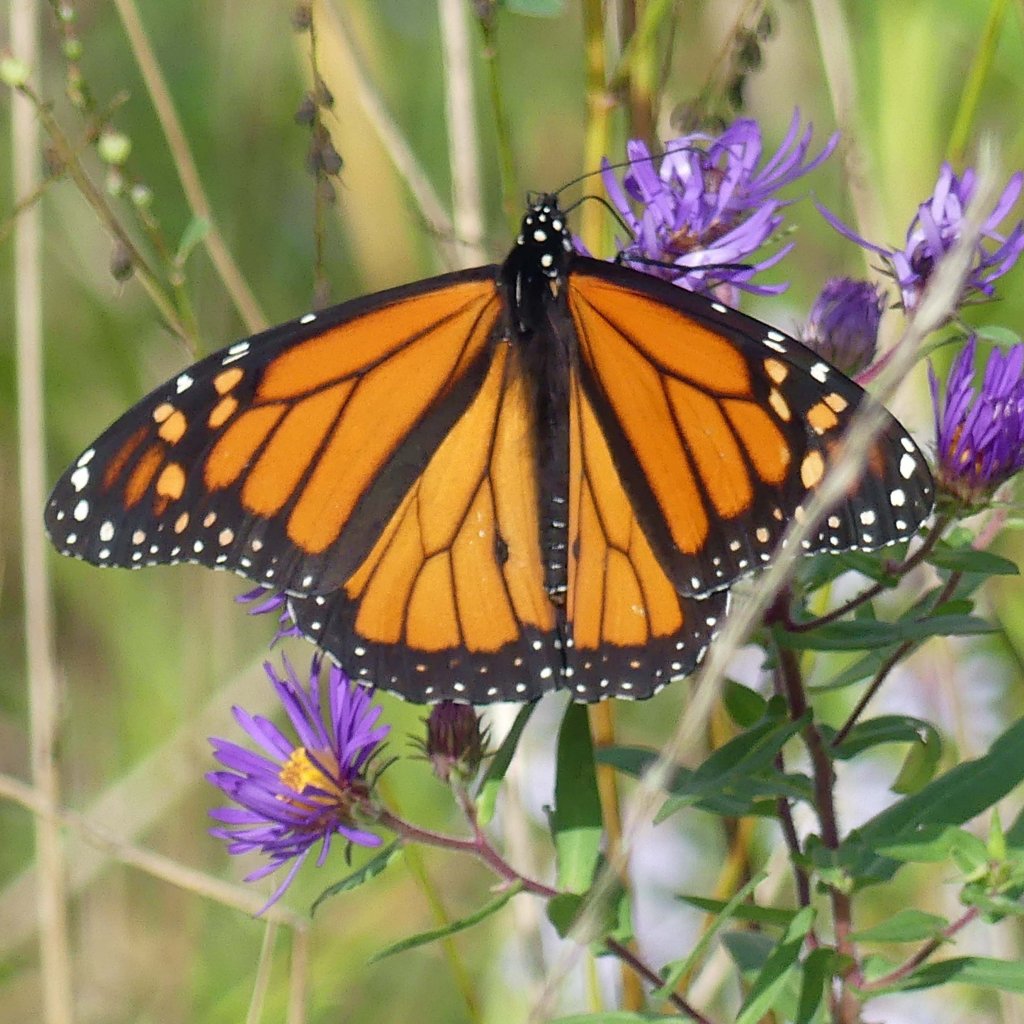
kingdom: Animalia
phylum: Arthropoda
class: Insecta
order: Lepidoptera
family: Nymphalidae
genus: Danaus
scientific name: Danaus plexippus
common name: Monarch
